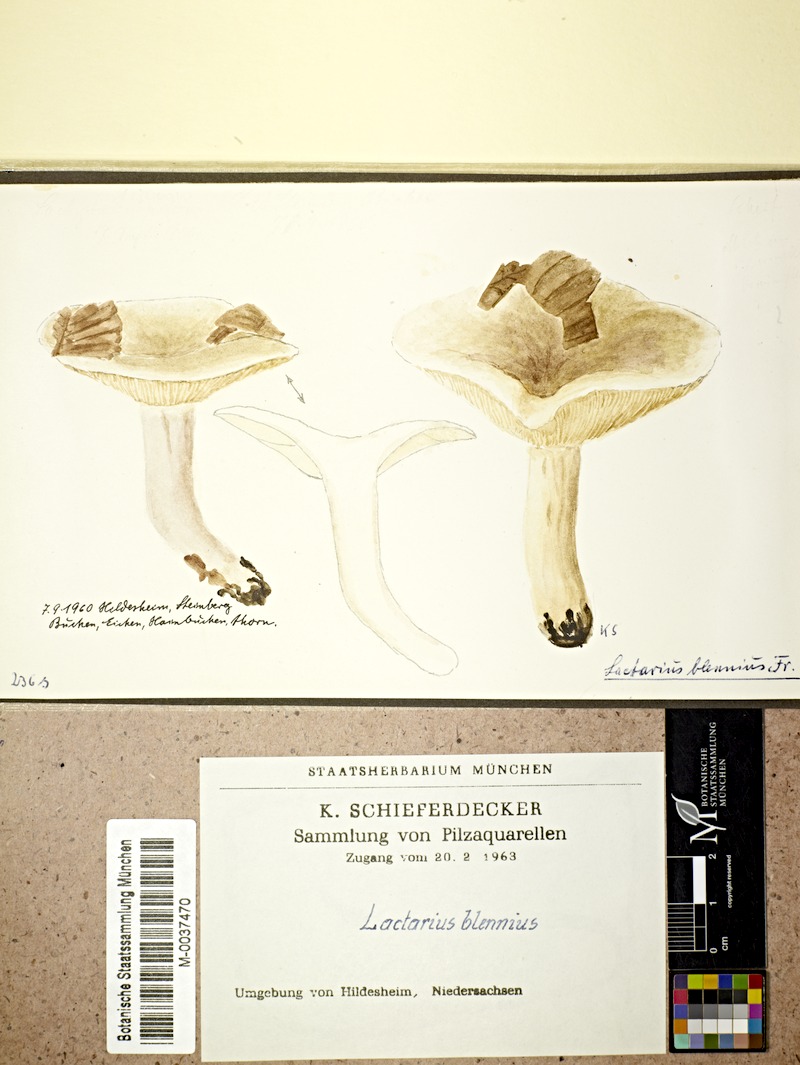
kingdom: Fungi
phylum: Basidiomycota
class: Agaricomycetes
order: Russulales
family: Russulaceae
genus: Lactarius
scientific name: Lactarius blennius
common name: Beech milkcap
